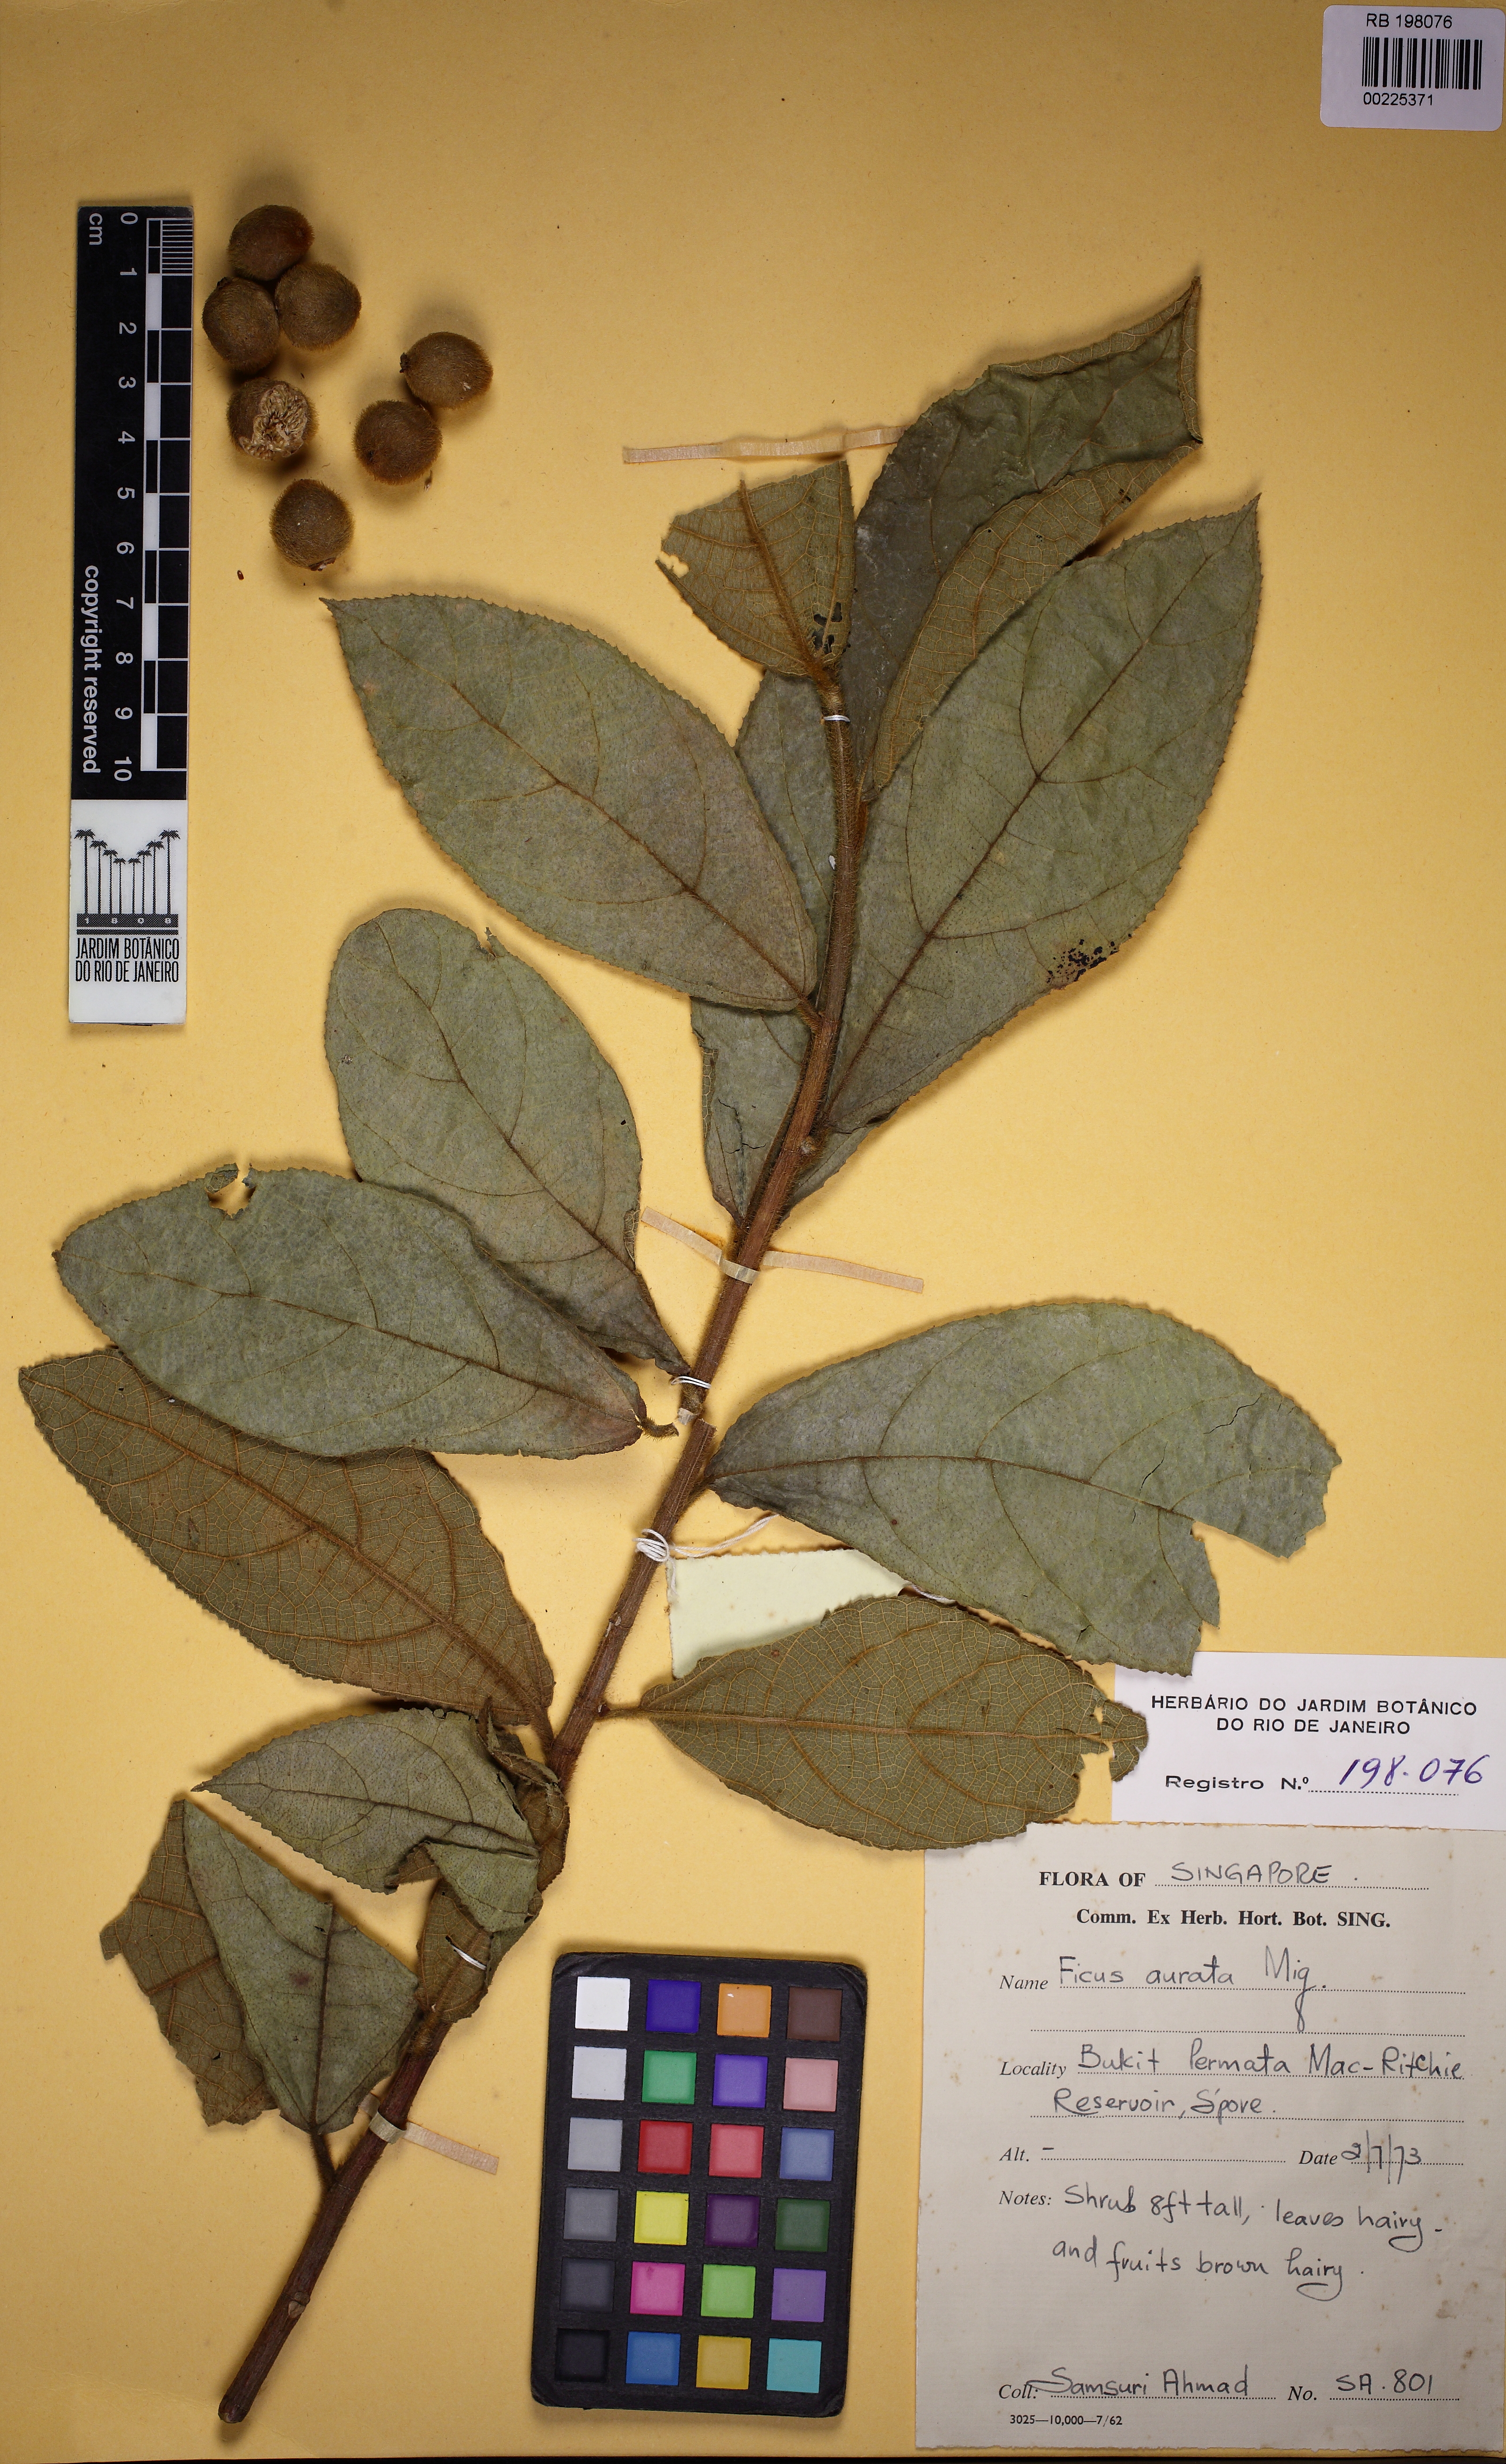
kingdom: Plantae
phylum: Tracheophyta
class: Magnoliopsida
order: Rosales
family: Moraceae
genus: Ficus
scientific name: Ficus aurata
